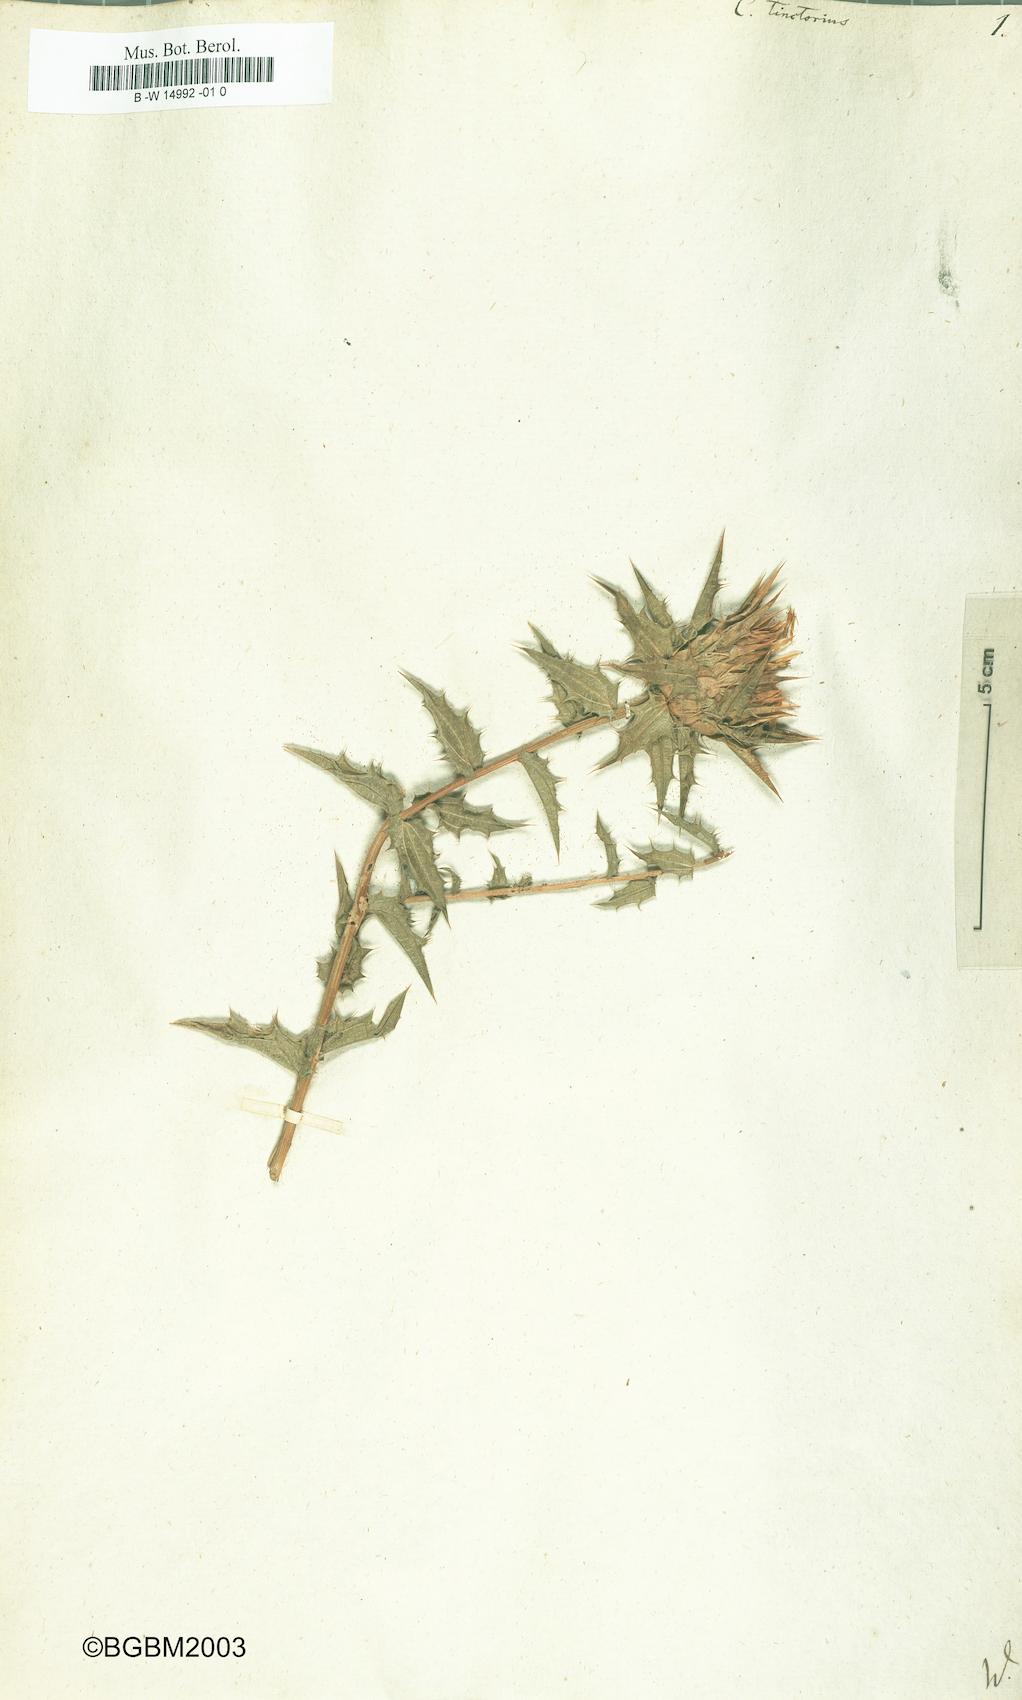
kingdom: Plantae
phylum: Tracheophyta
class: Magnoliopsida
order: Asterales
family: Asteraceae
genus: Carthamus
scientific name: Carthamus tinctorius
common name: Safflower
